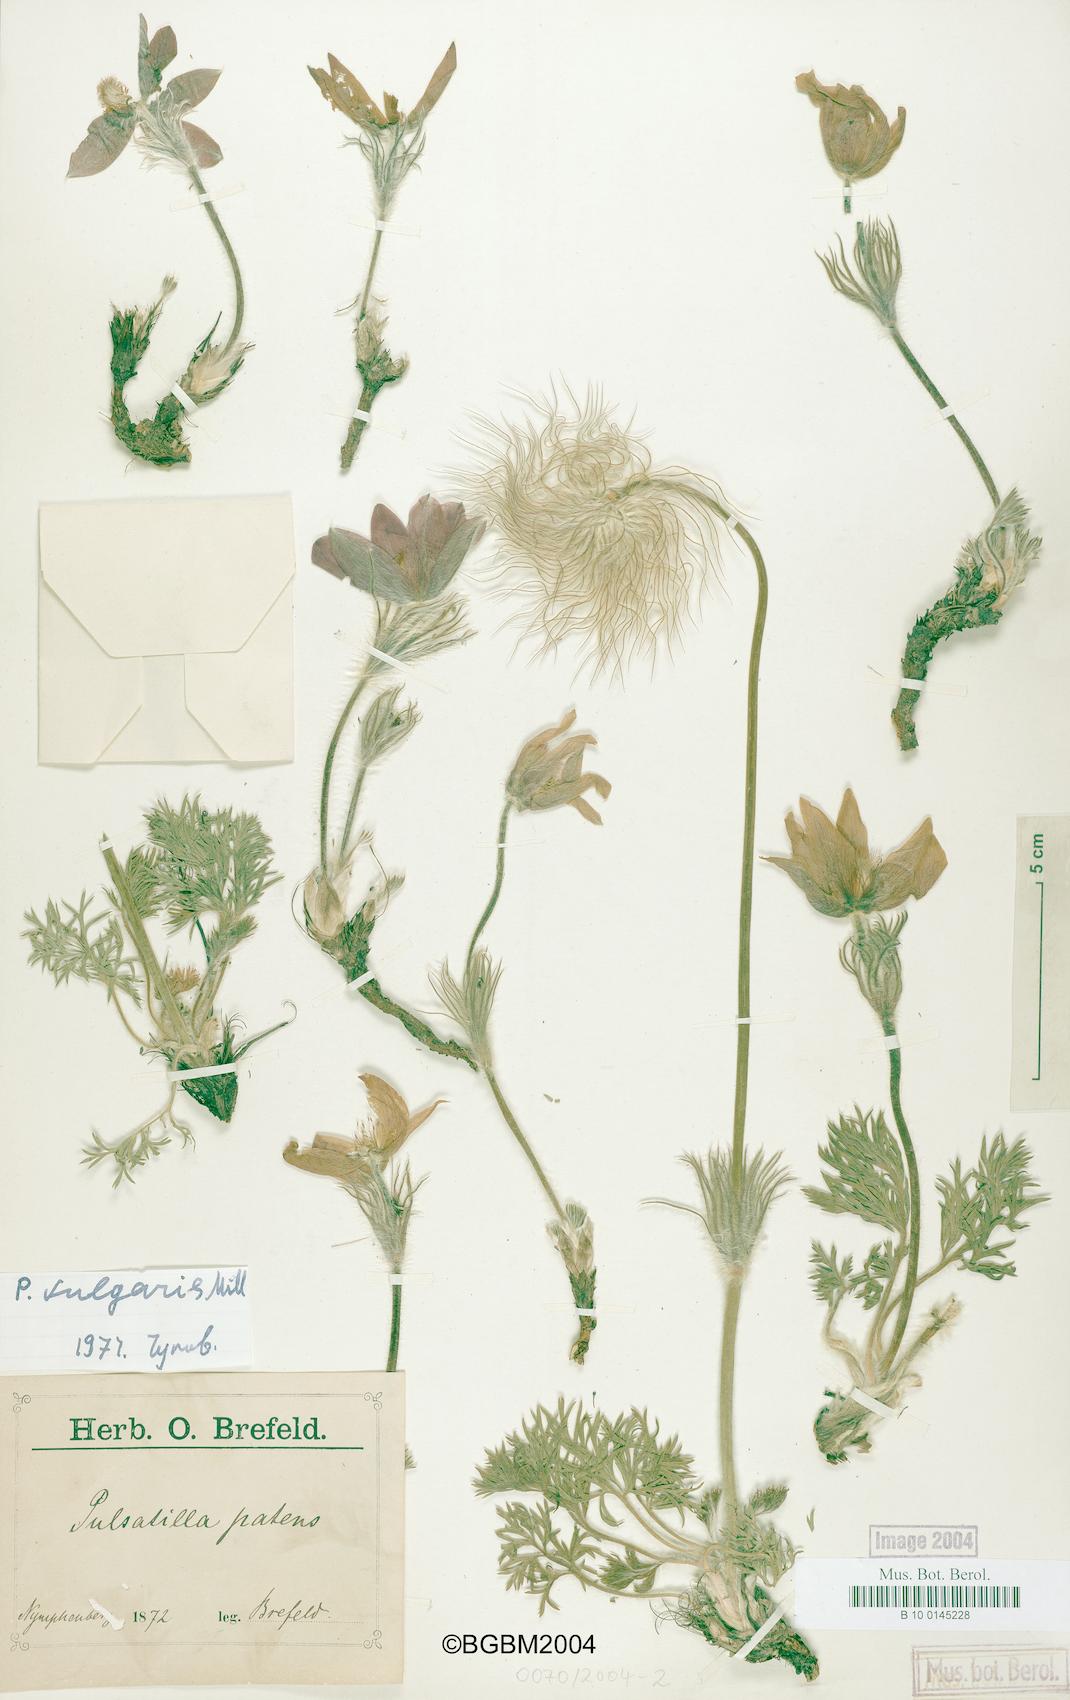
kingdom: Plantae
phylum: Tracheophyta
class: Magnoliopsida
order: Ranunculales
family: Ranunculaceae
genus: Pulsatilla
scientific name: Pulsatilla vulgaris
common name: Pasqueflower
